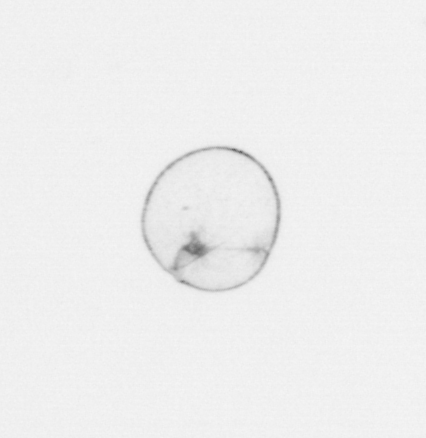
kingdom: Chromista
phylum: Myzozoa
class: Dinophyceae
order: Noctilucales
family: Noctilucaceae
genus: Noctiluca
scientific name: Noctiluca scintillans
